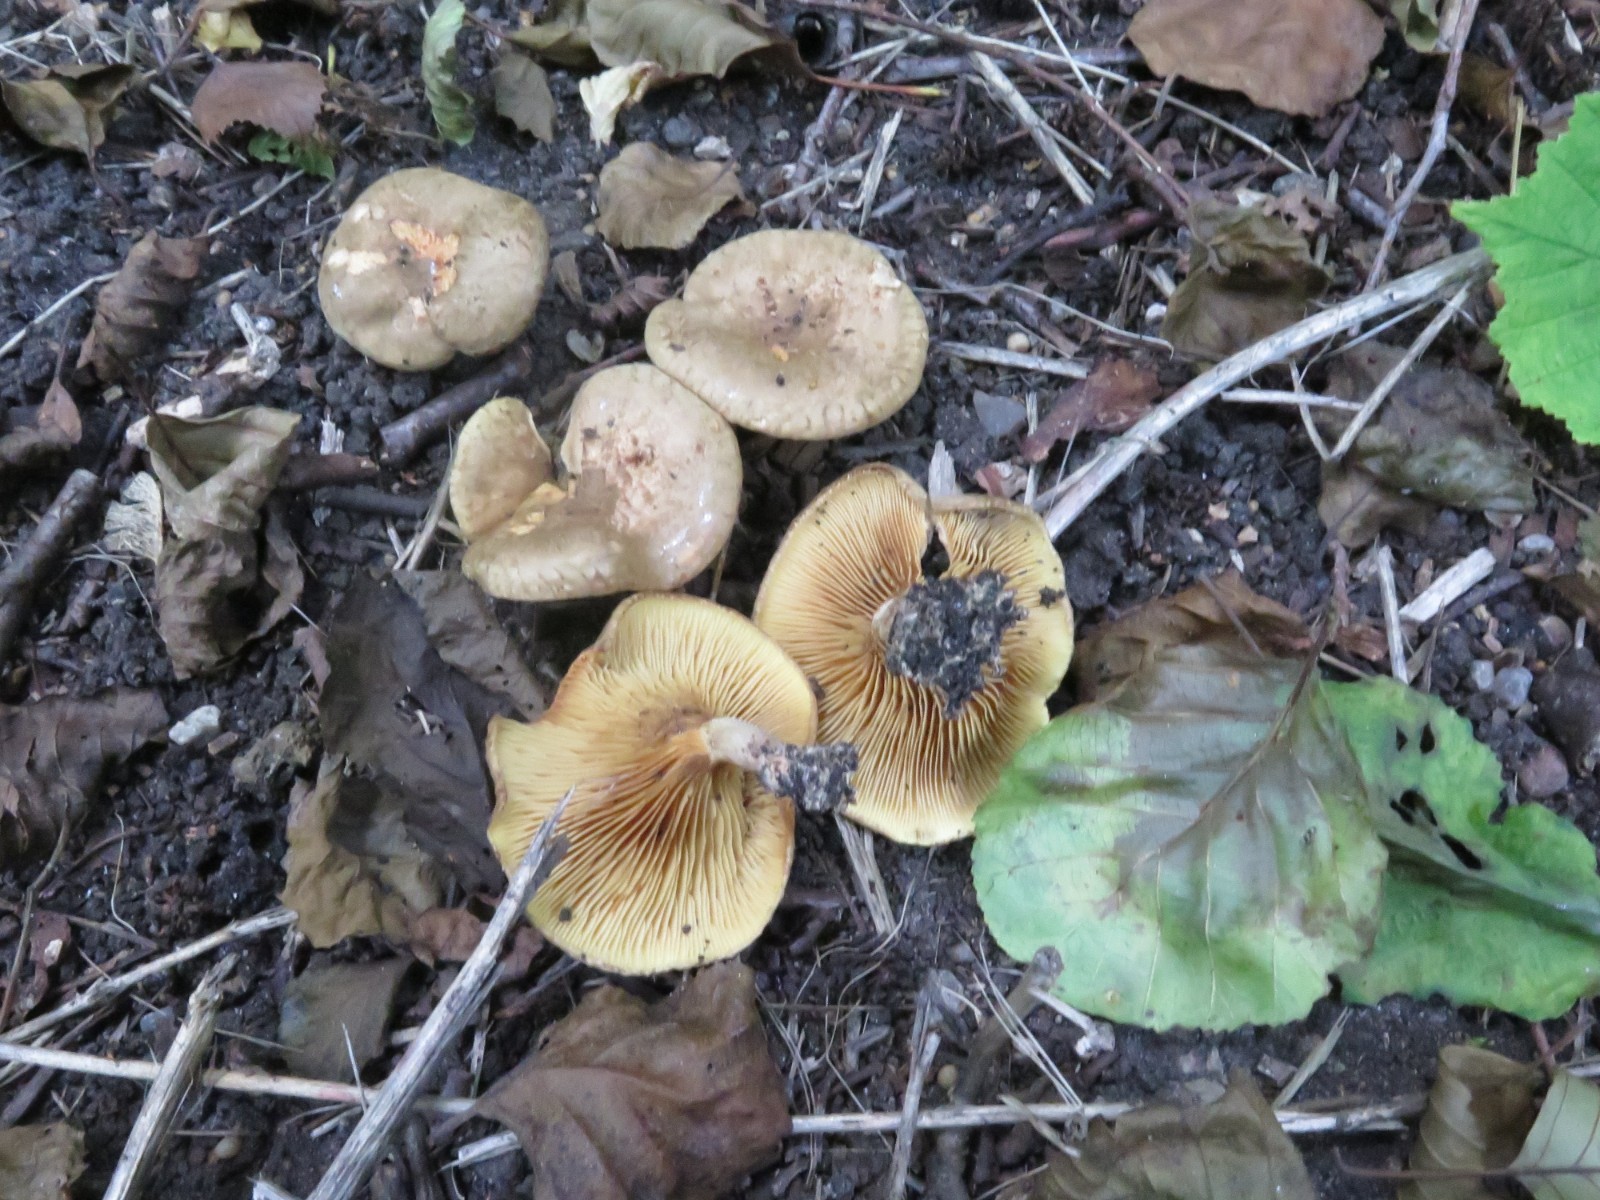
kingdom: Fungi
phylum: Basidiomycota
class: Agaricomycetes
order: Boletales
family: Paxillaceae
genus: Paxillus
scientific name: Paxillus rubicundulus
